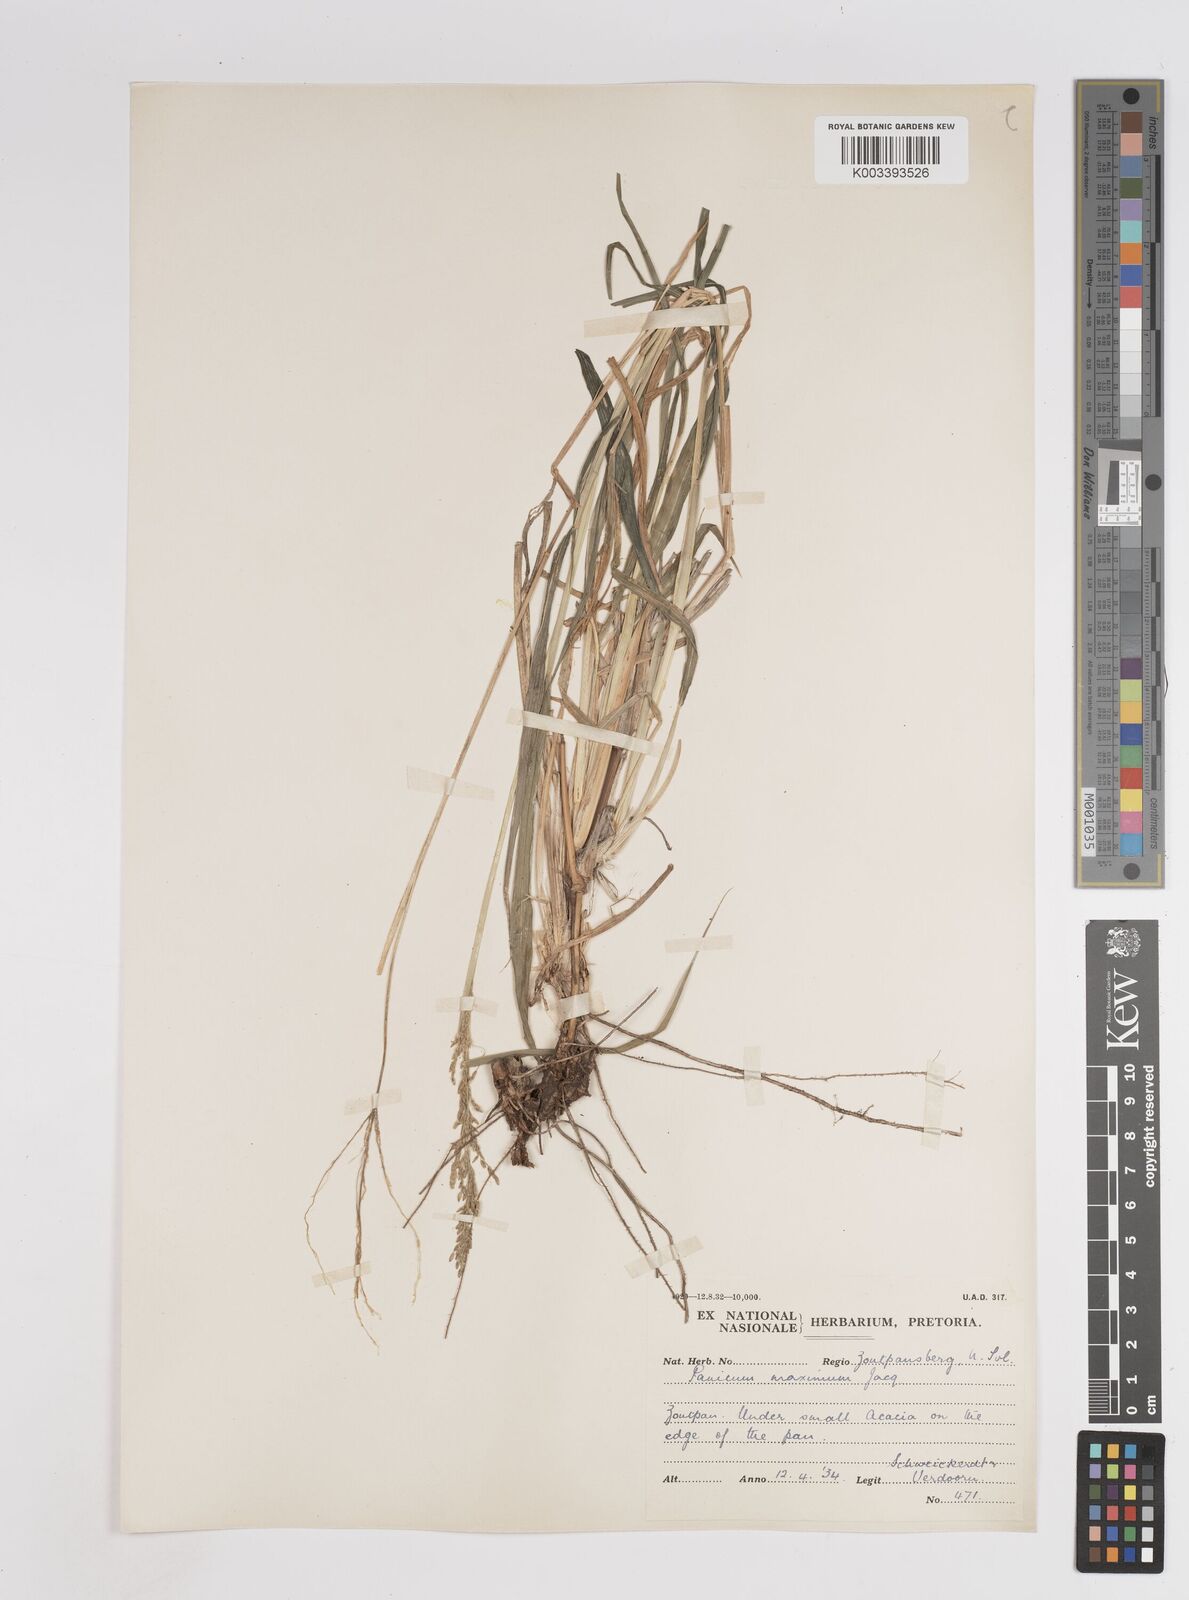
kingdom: Plantae
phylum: Tracheophyta
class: Liliopsida
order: Poales
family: Poaceae
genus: Megathyrsus
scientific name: Megathyrsus maximus
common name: Guineagrass
